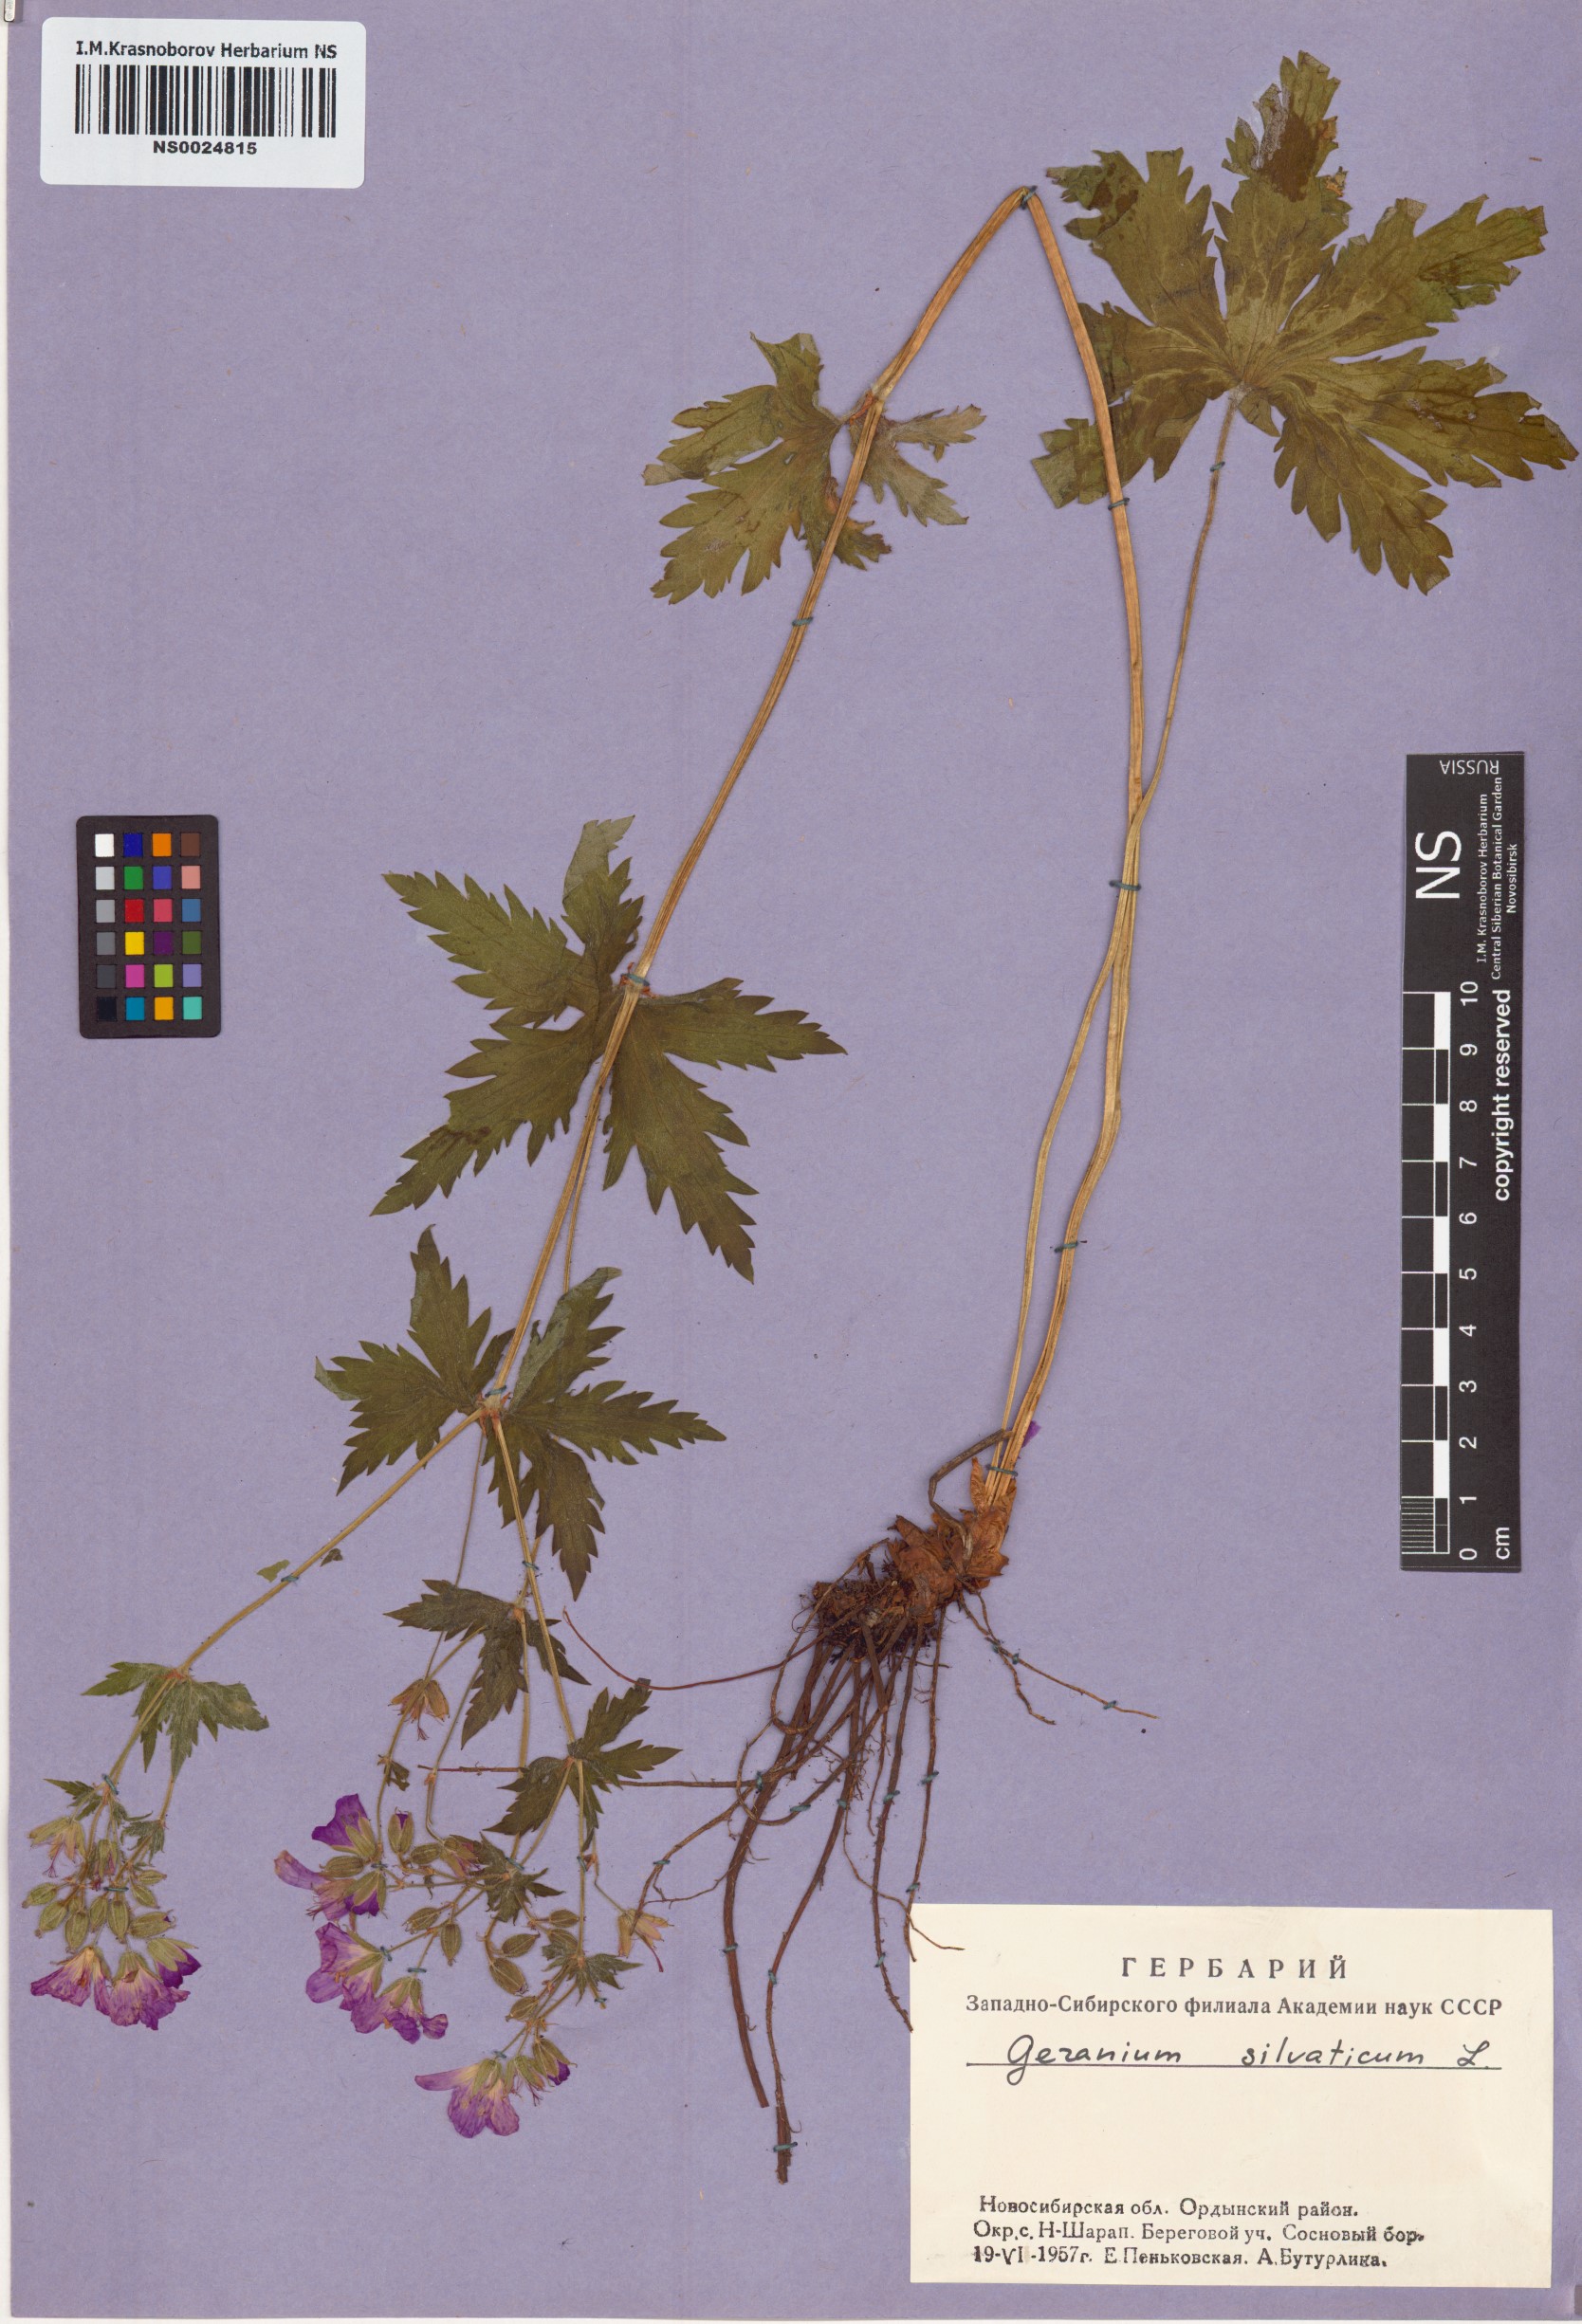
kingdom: Plantae
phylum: Tracheophyta
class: Magnoliopsida
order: Geraniales
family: Geraniaceae
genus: Geranium
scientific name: Geranium sylvaticum
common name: Wood crane's-bill
